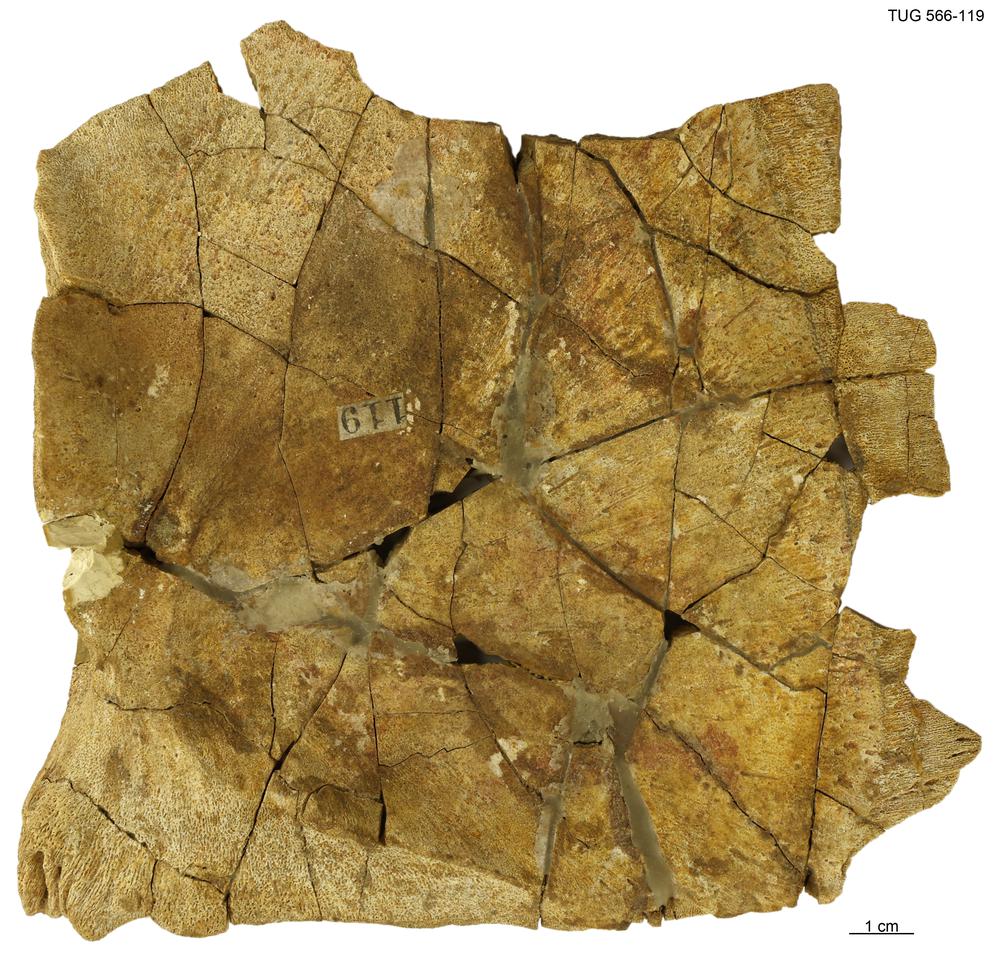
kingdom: Animalia
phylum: Chordata
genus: Homosteus
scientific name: Homosteus sulcatus
